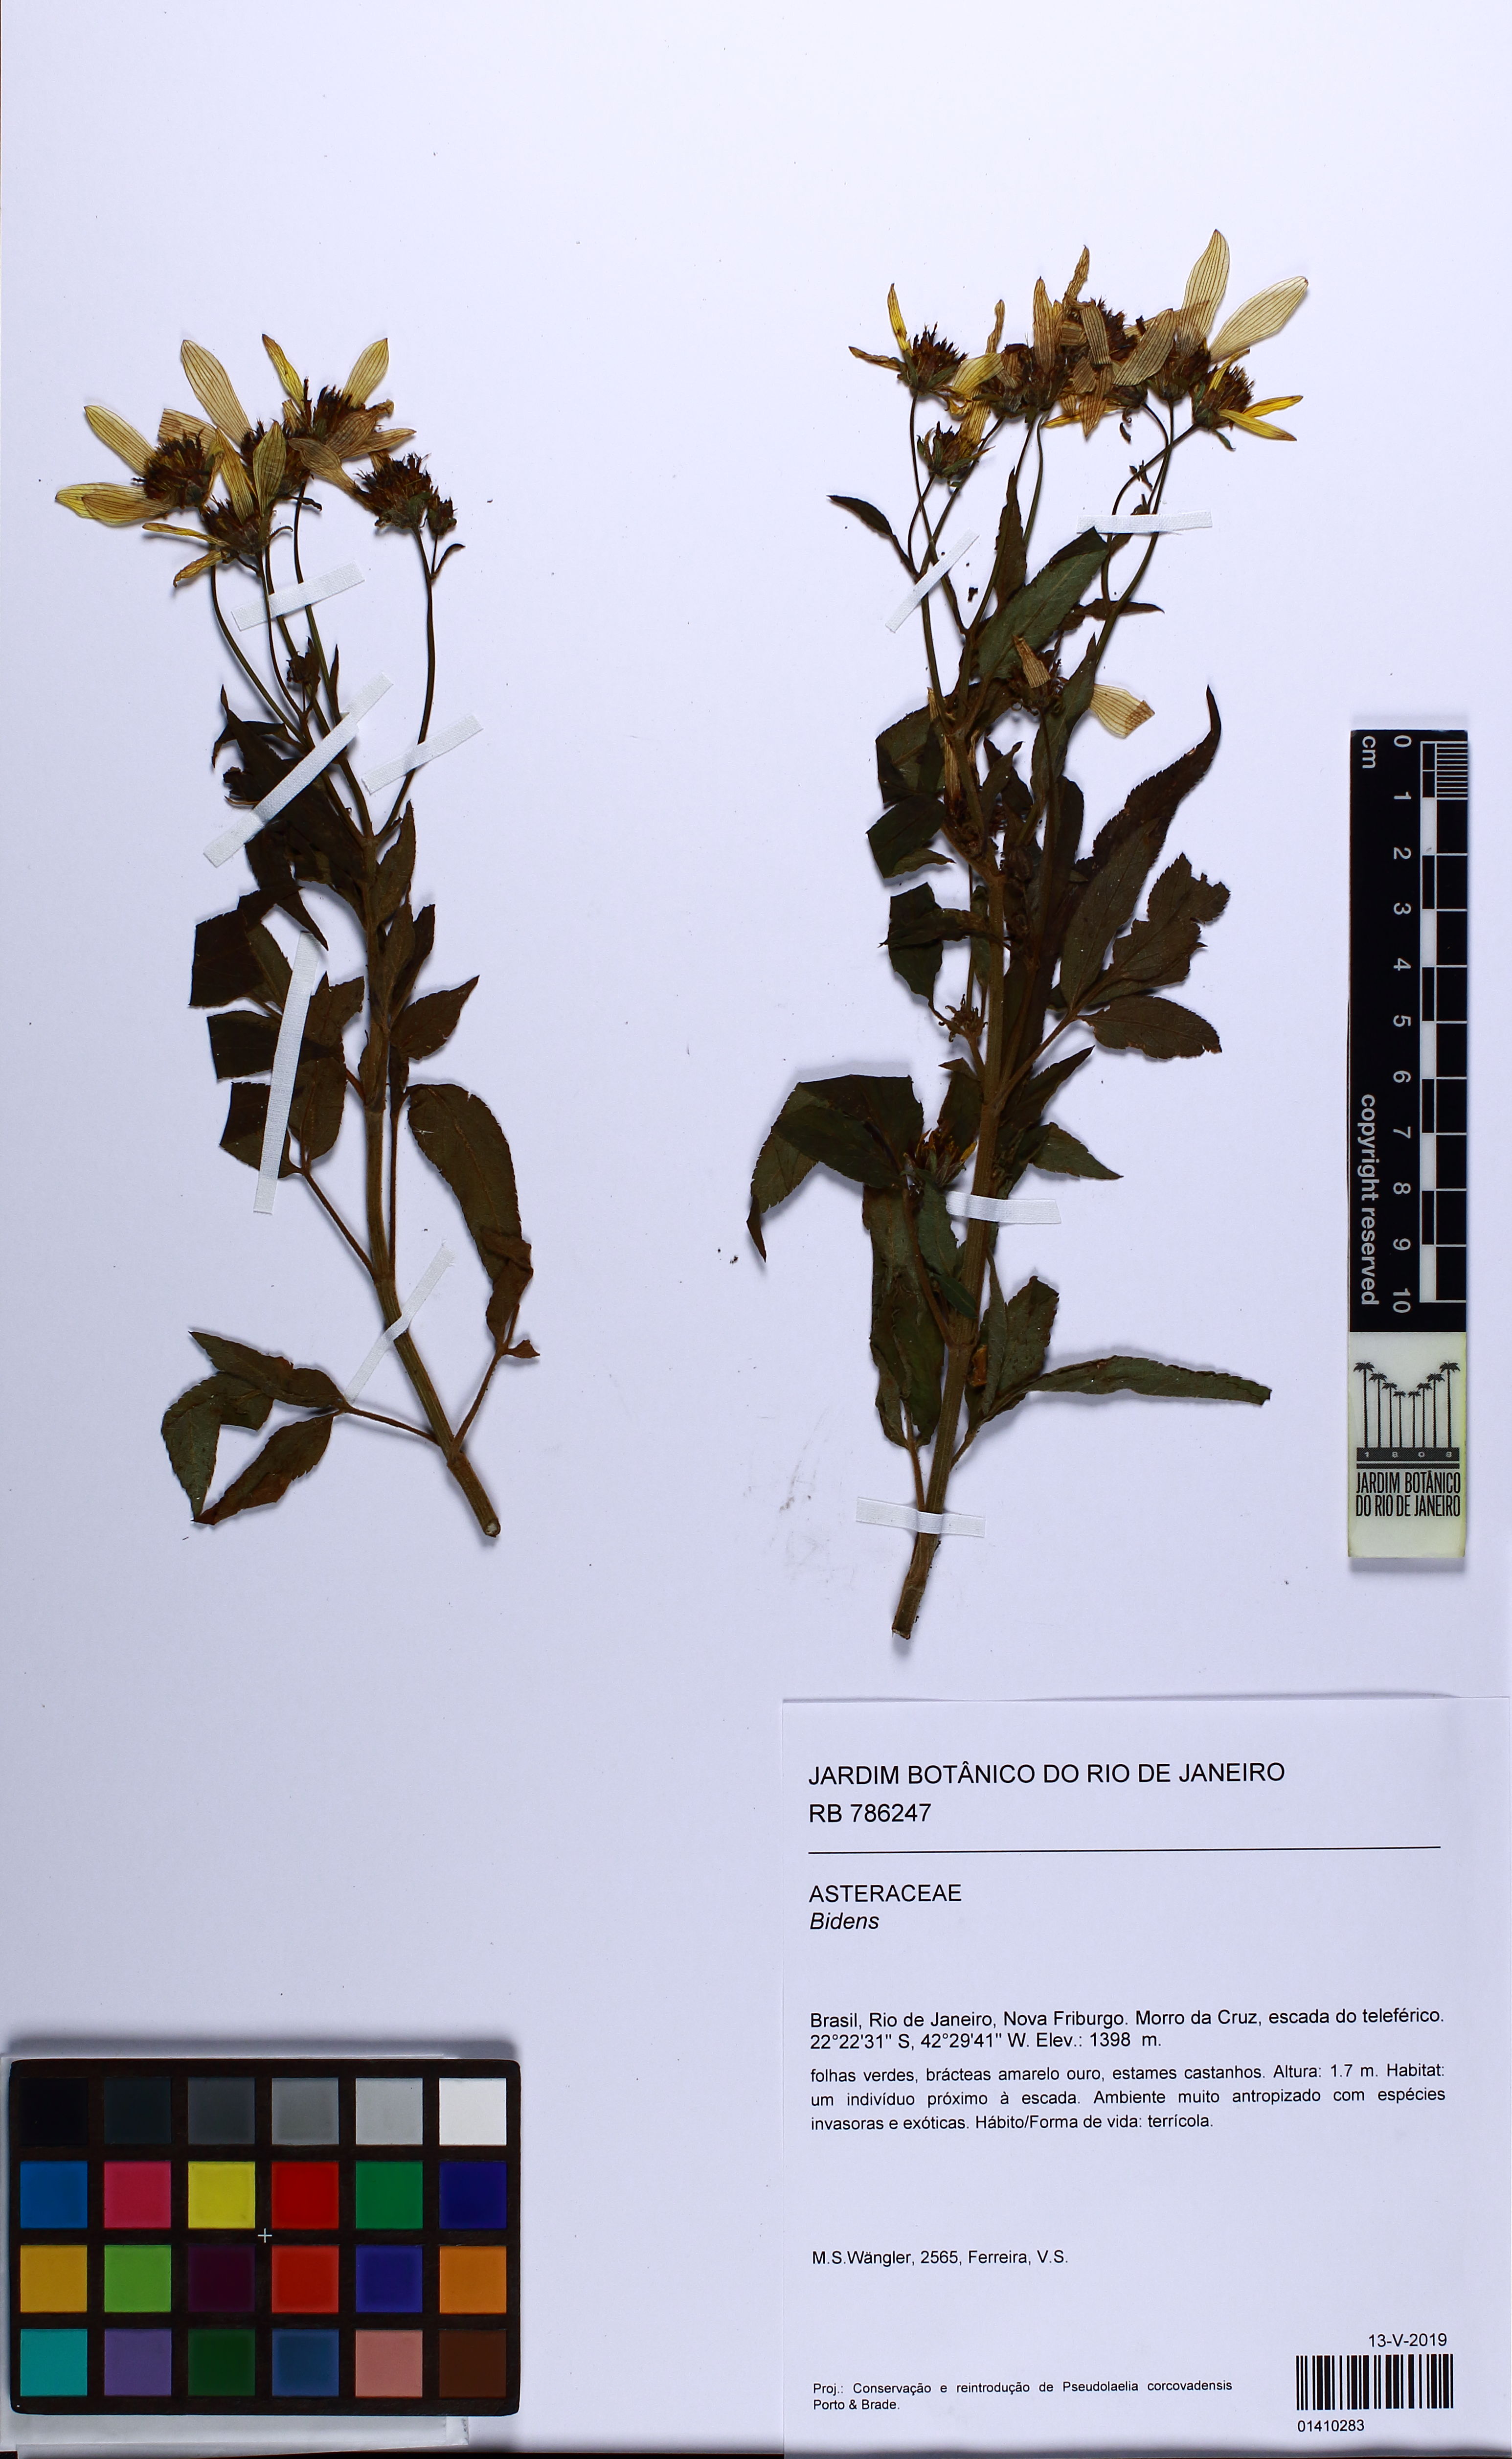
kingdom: Plantae
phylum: Tracheophyta
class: Magnoliopsida
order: Asterales
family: Asteraceae
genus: Bidens
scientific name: Bidens
